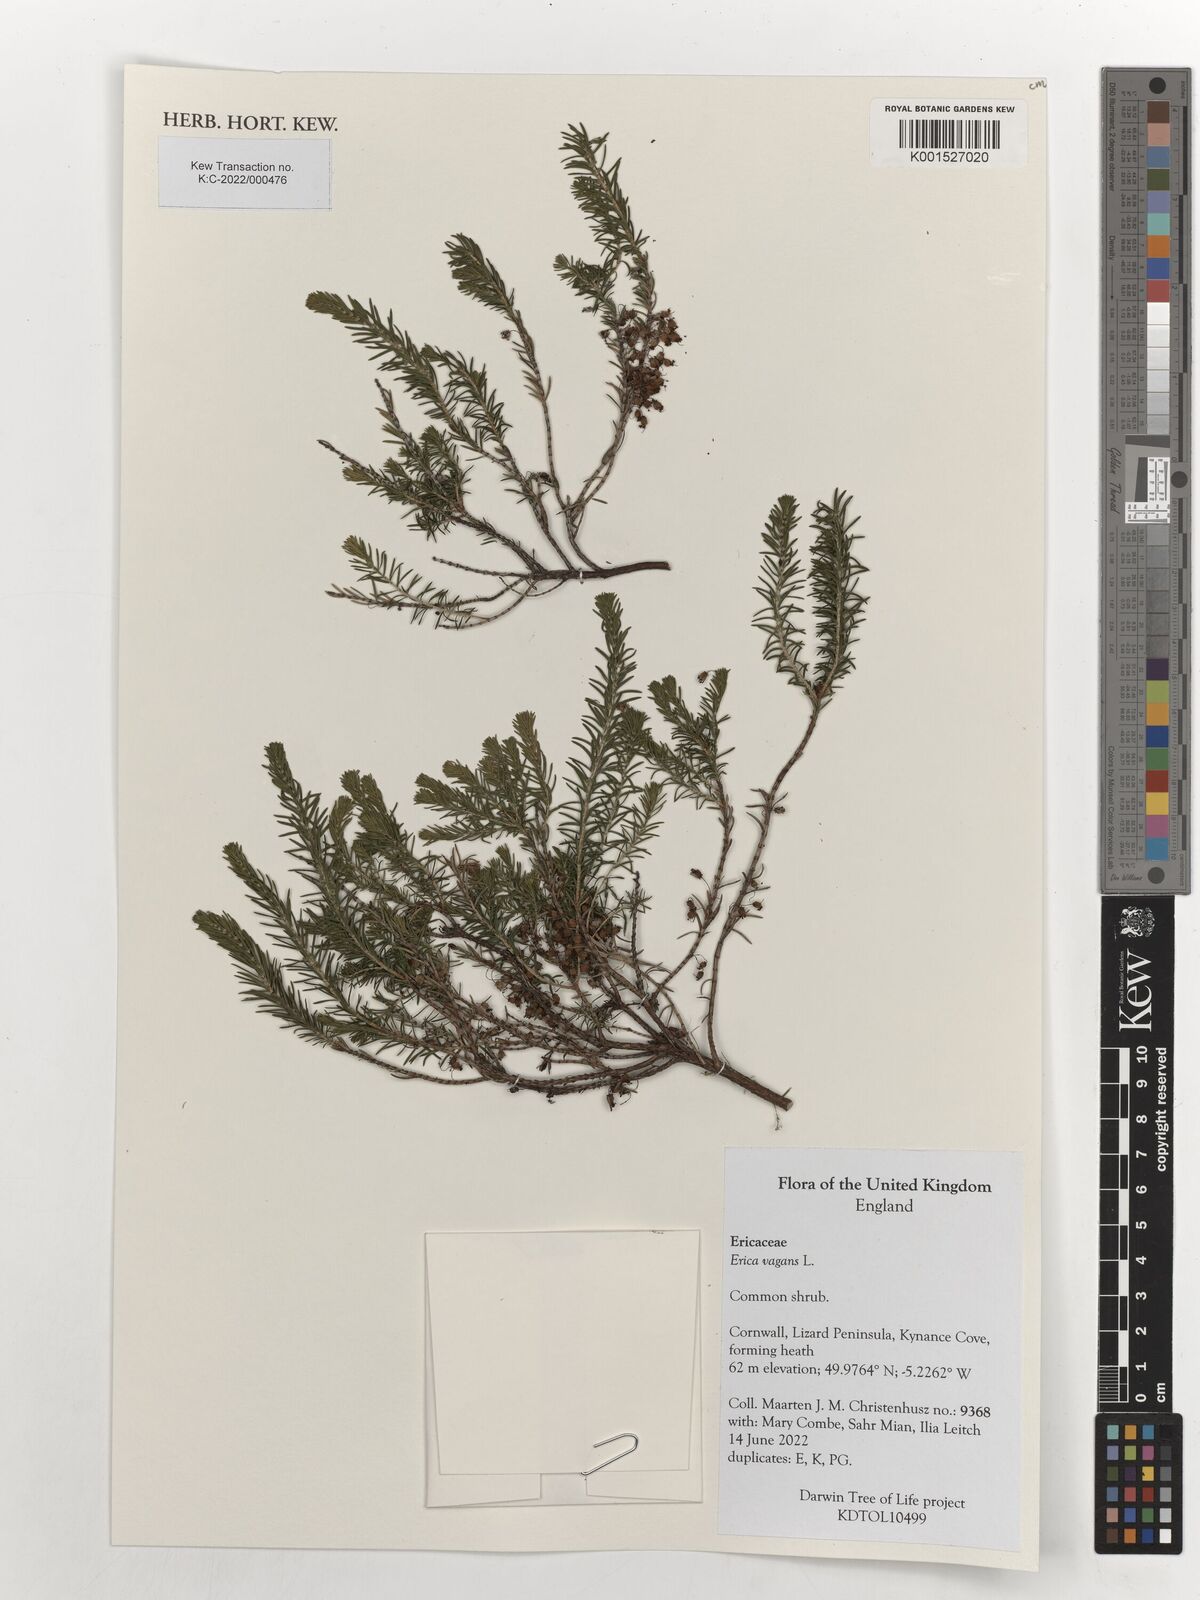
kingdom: Plantae
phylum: Tracheophyta
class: Magnoliopsida
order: Ericales
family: Ericaceae
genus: Erica
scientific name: Erica vagans
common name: Cornish heath
